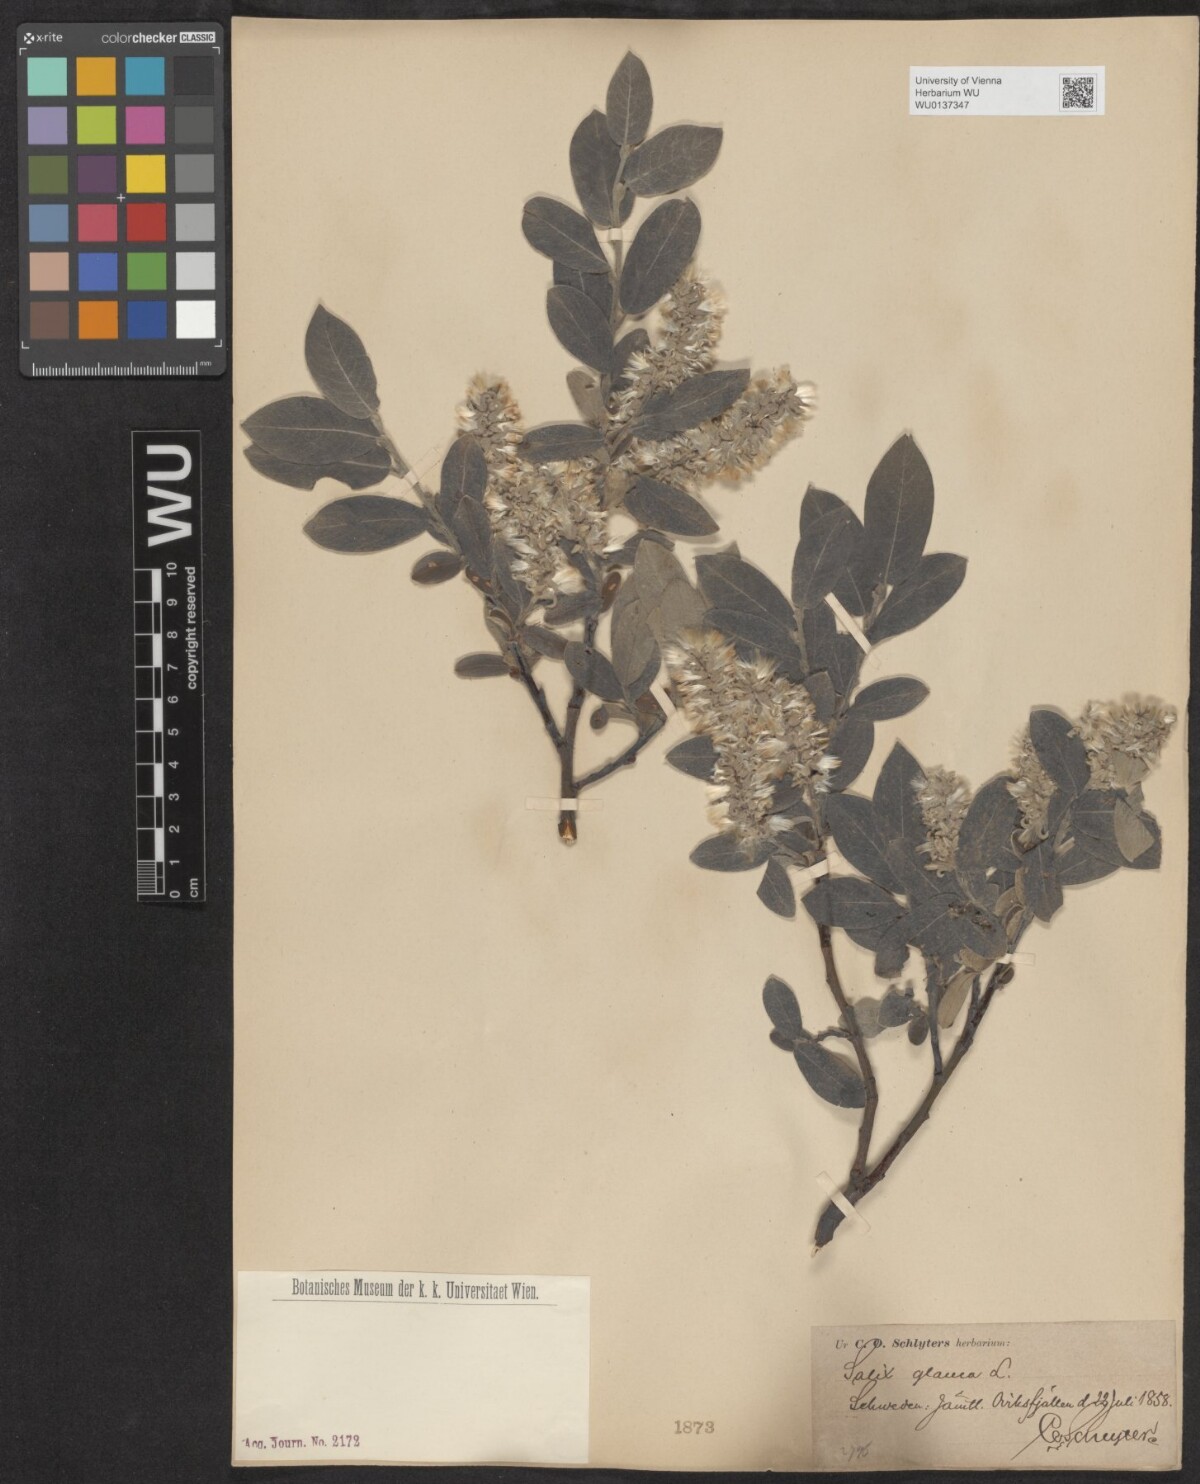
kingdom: Plantae
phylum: Tracheophyta
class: Magnoliopsida
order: Malpighiales
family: Salicaceae
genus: Salix
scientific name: Salix glauca
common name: Glaucous willow
